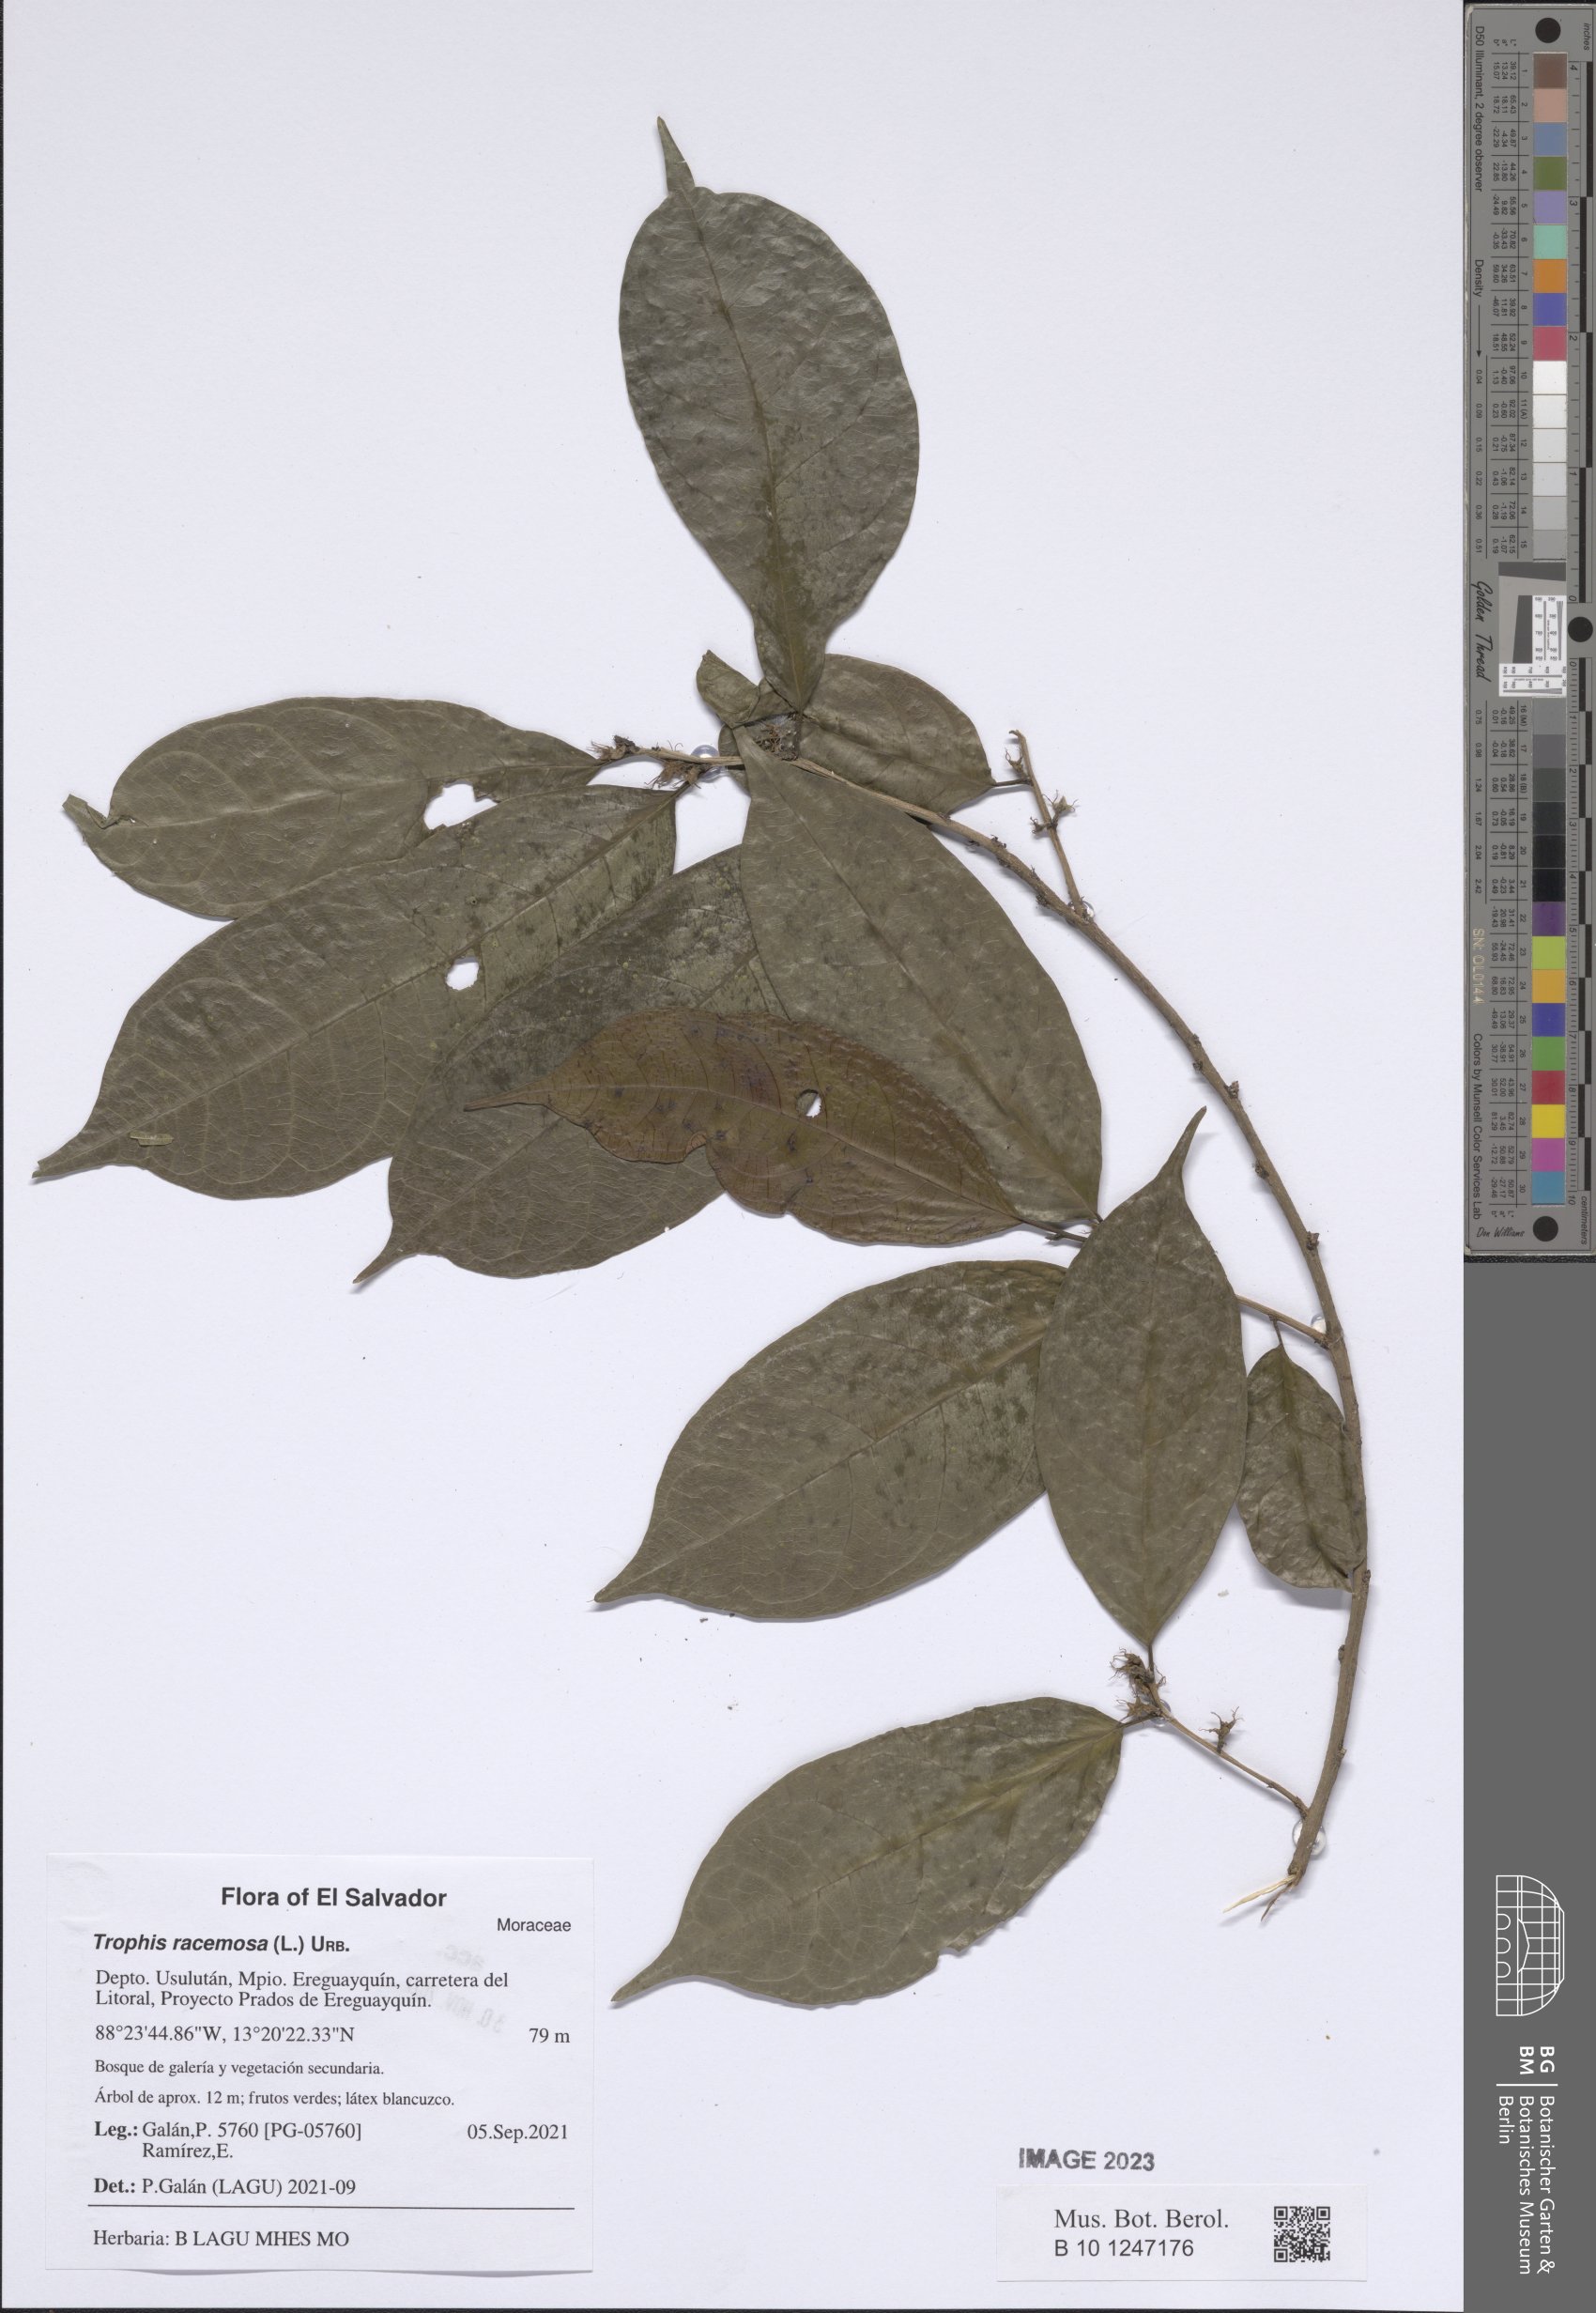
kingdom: Plantae
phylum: Tracheophyta
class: Magnoliopsida
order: Rosales
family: Moraceae
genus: Trophis
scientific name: Trophis racemosa
